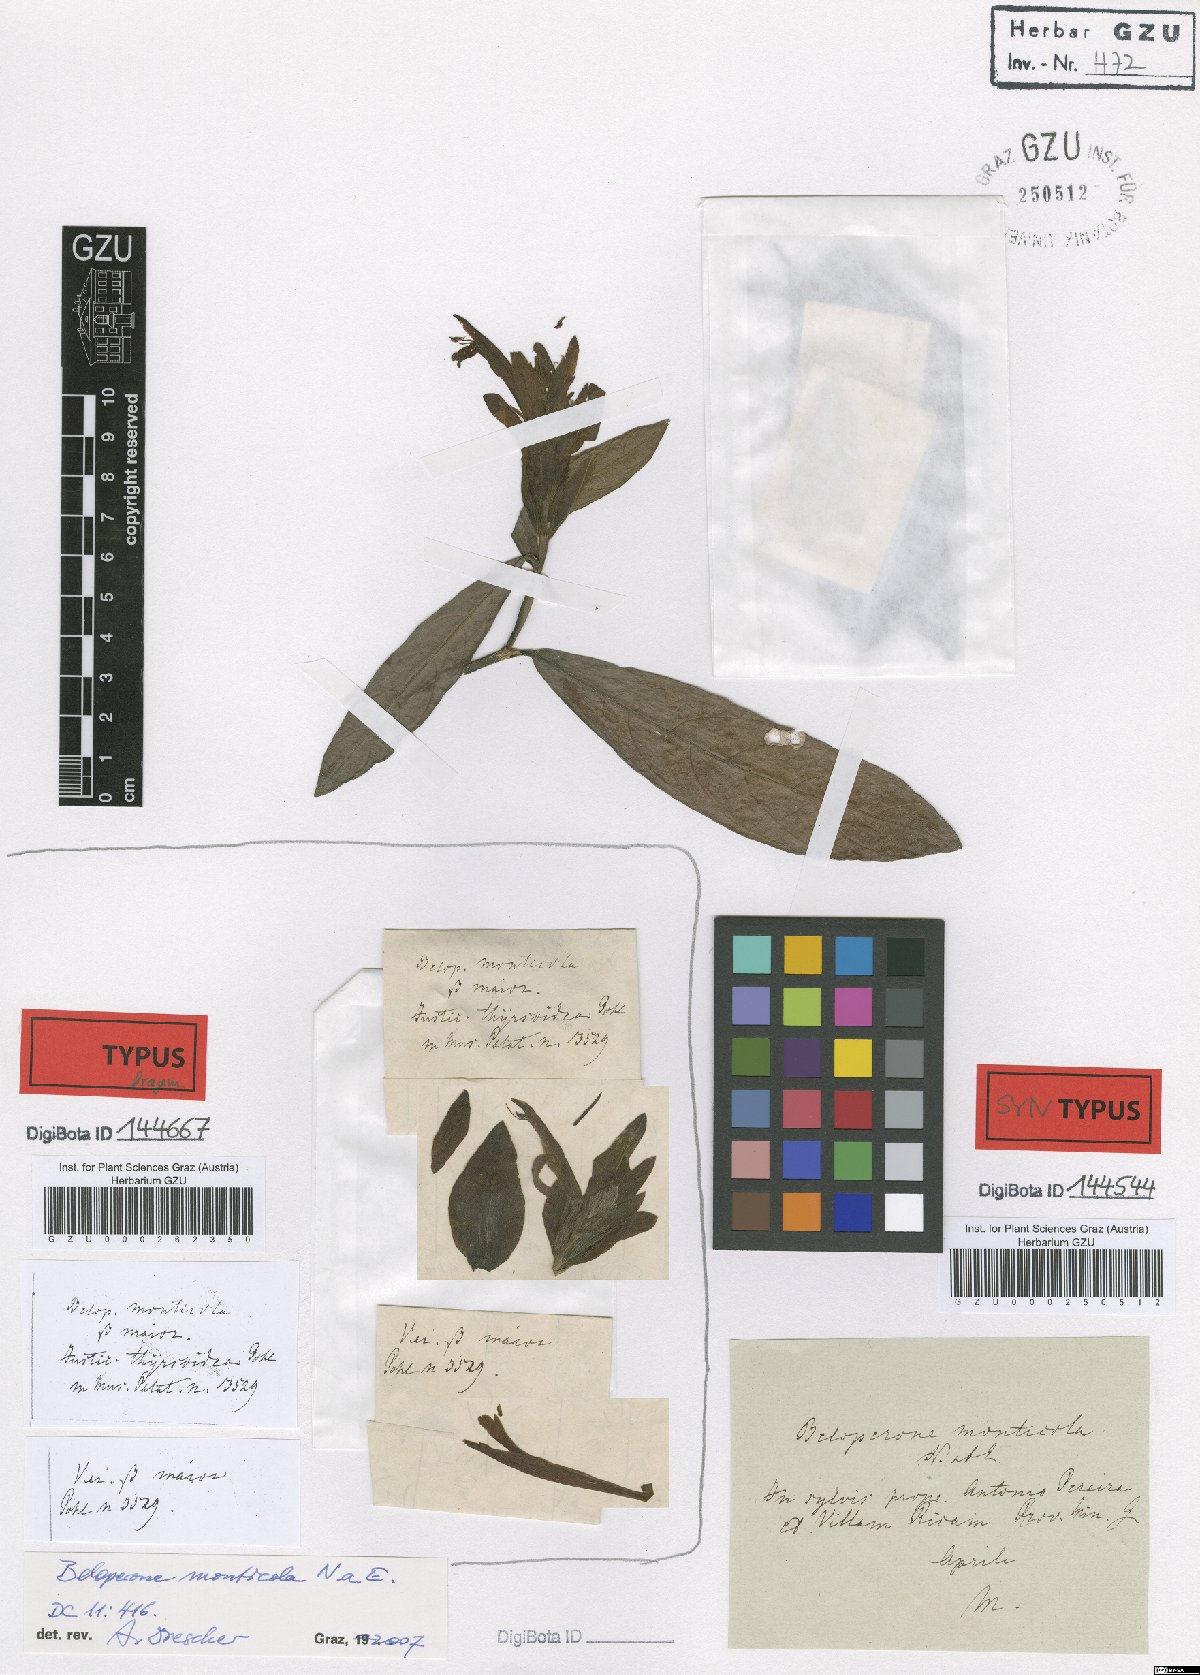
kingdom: Plantae
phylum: Tracheophyta
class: Magnoliopsida
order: Lamiales
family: Acanthaceae
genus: Lepidagathis
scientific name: Lepidagathis Lophostachys monticola
